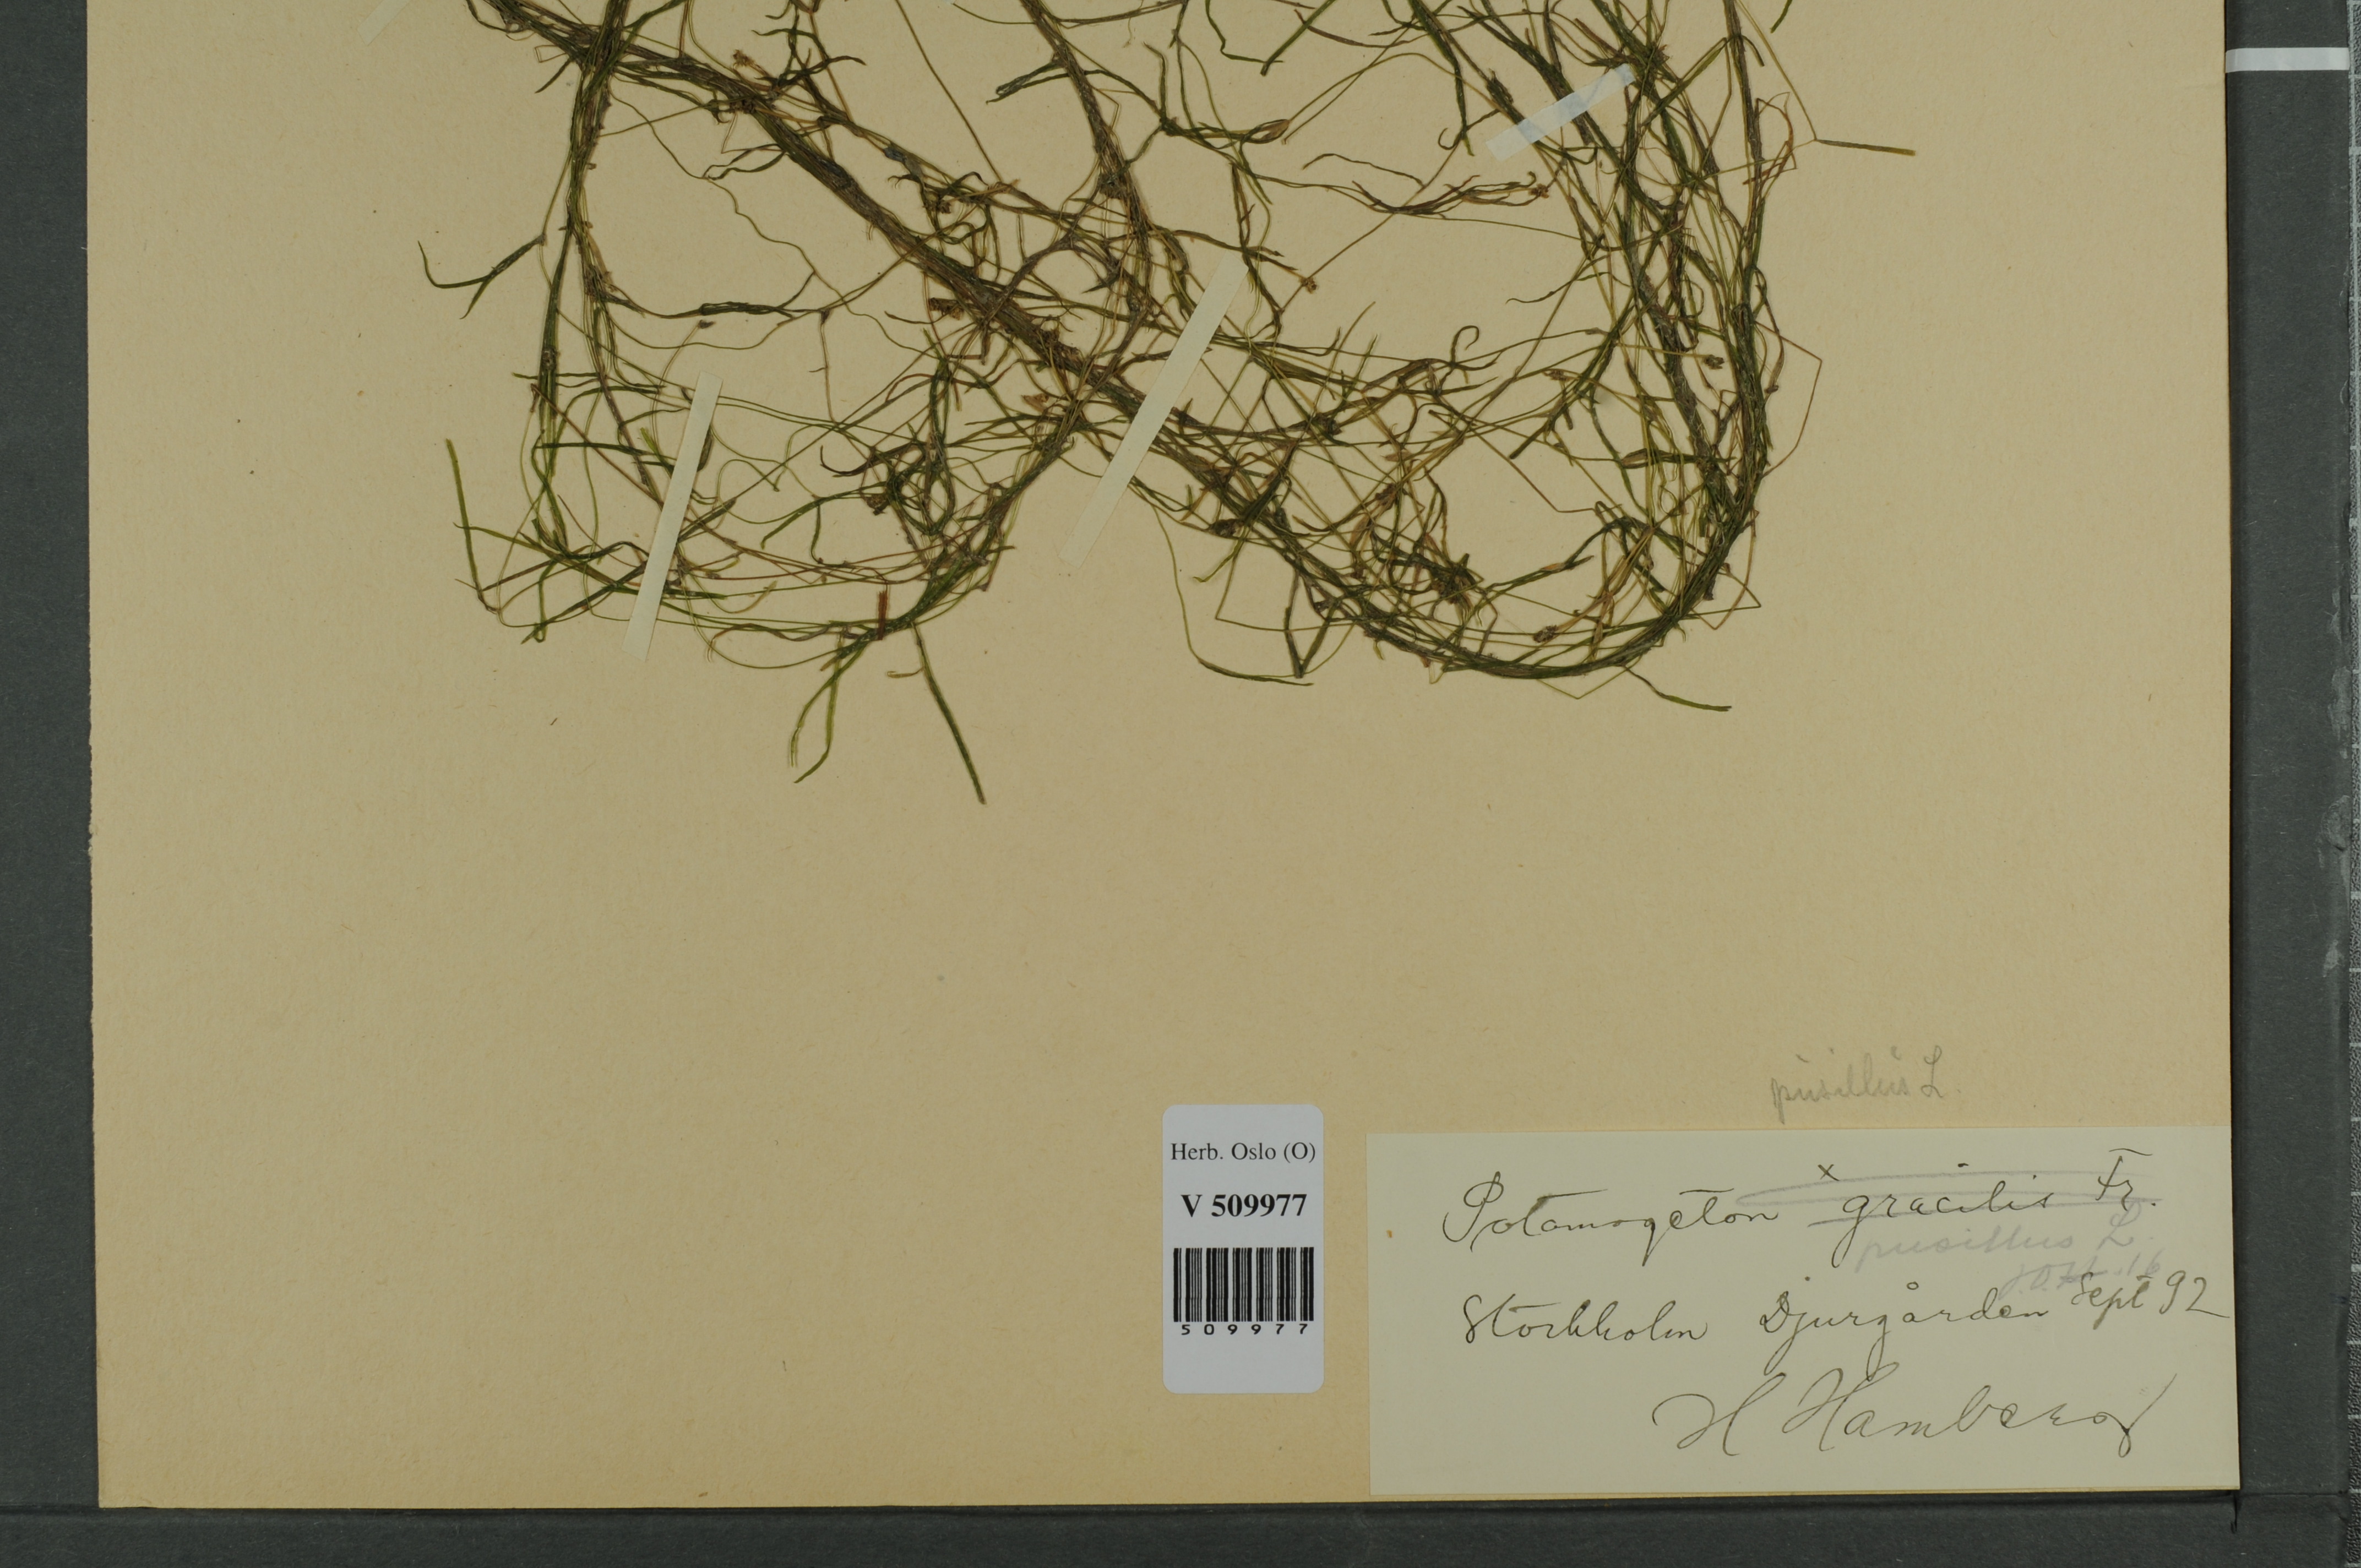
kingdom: Plantae
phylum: Tracheophyta
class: Liliopsida
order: Alismatales
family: Potamogetonaceae
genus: Potamogeton
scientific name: Potamogeton berchtoldii
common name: Small pondweed
